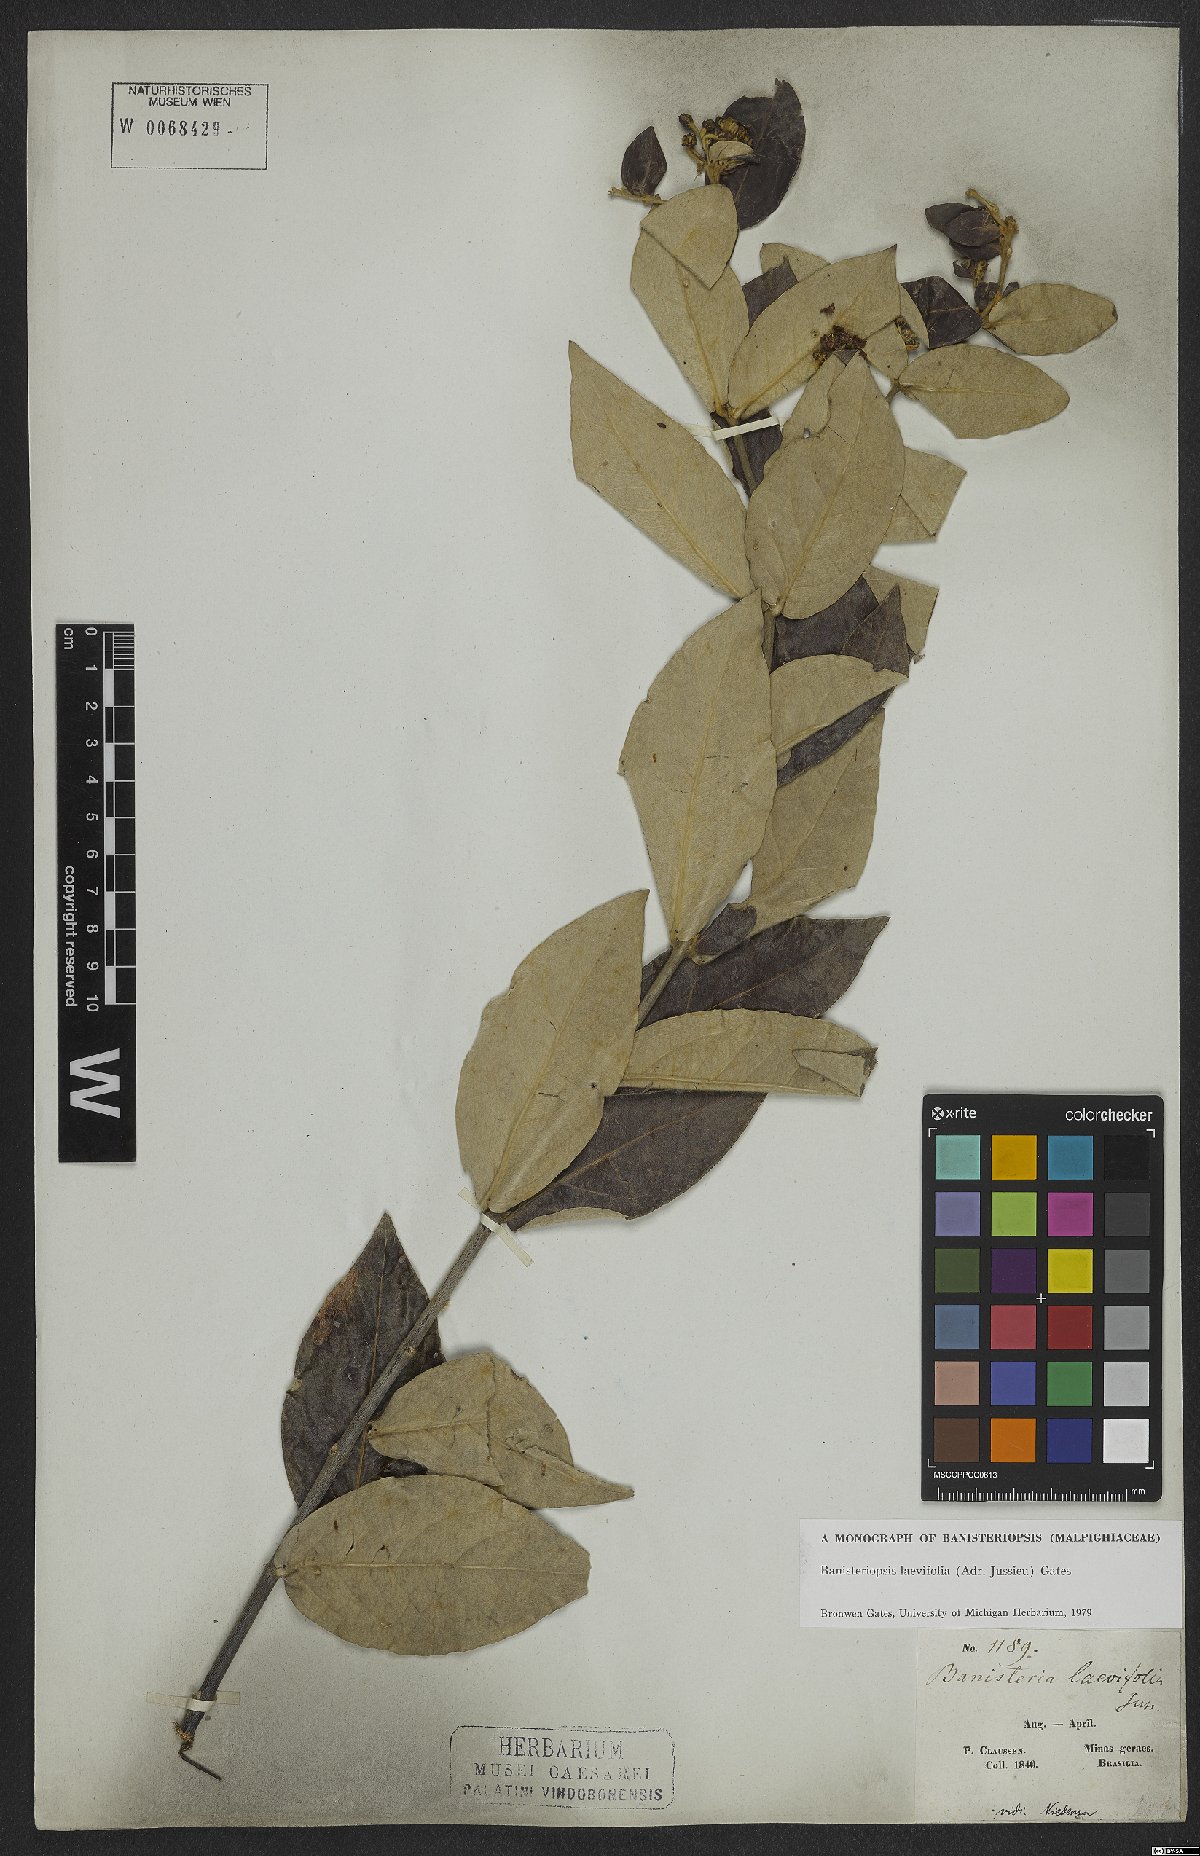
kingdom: Plantae
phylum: Tracheophyta
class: Magnoliopsida
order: Malpighiales
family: Malpighiaceae
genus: Banisteriopsis
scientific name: Banisteriopsis laevifolia
